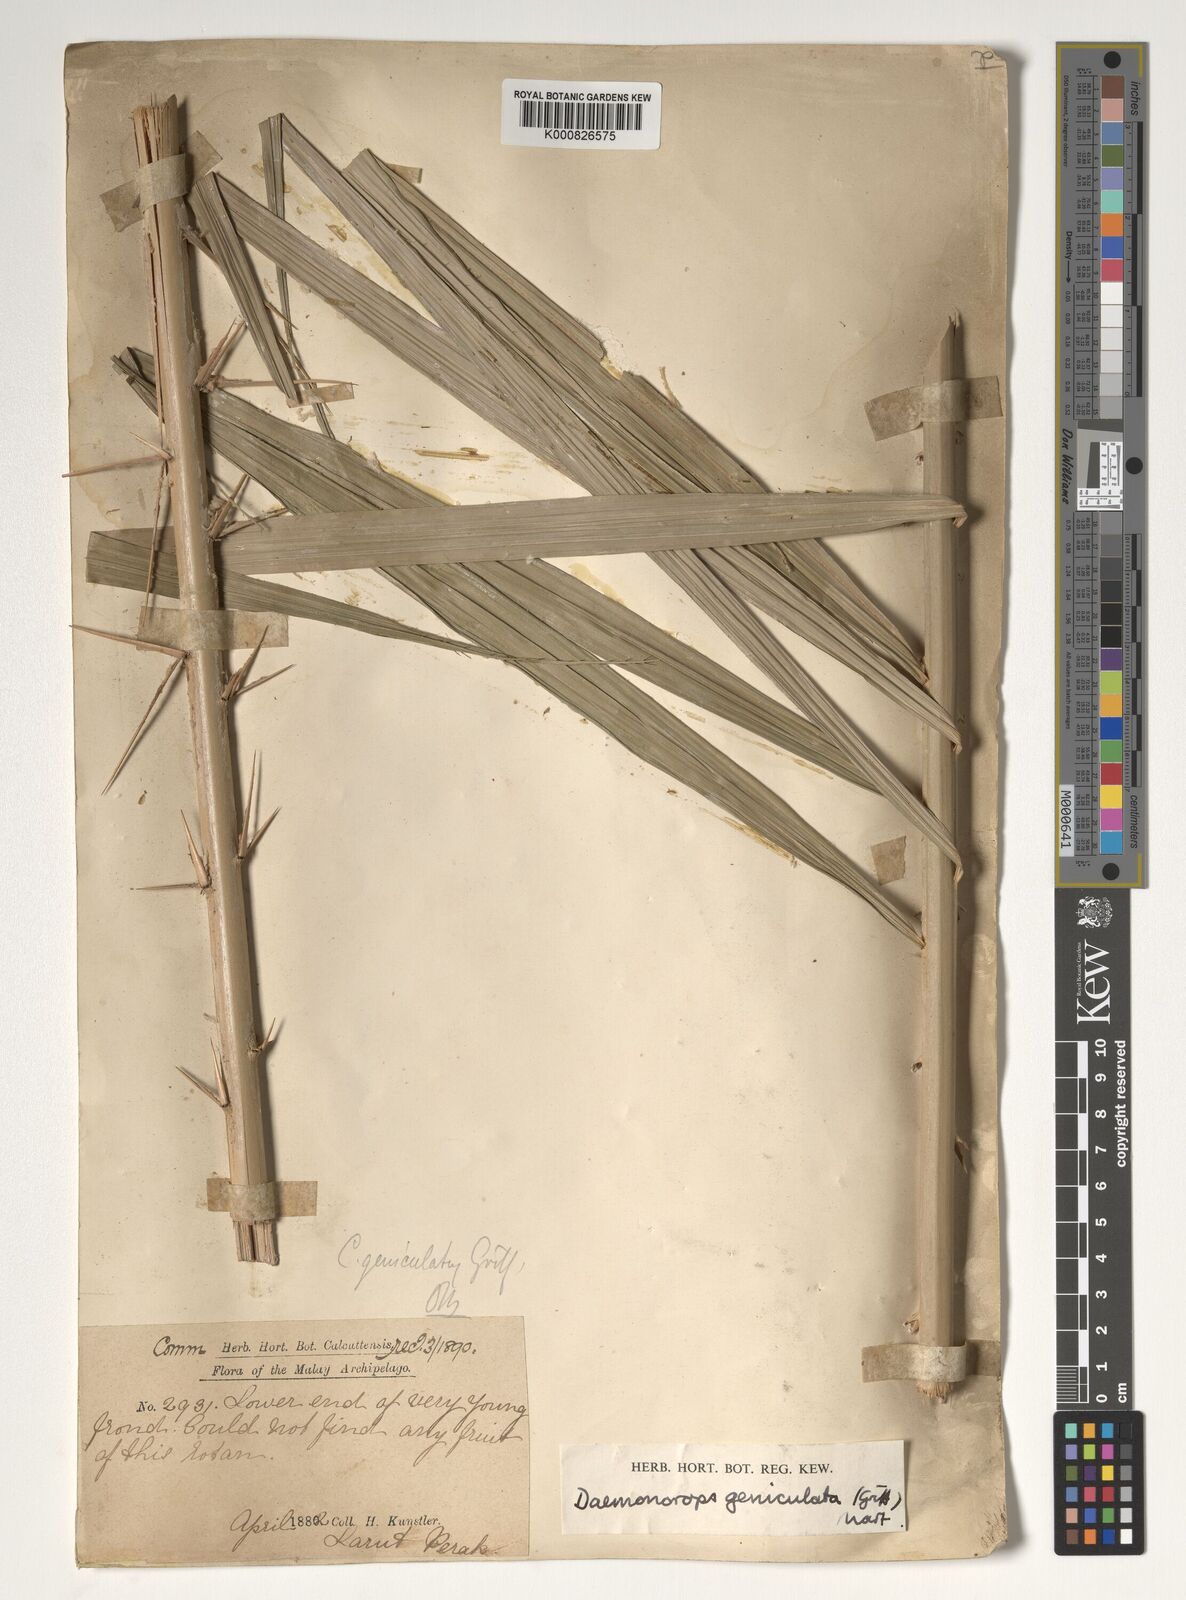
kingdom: Plantae
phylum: Tracheophyta
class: Liliopsida
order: Arecales
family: Arecaceae
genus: Calamus
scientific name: Calamus geniculatus
